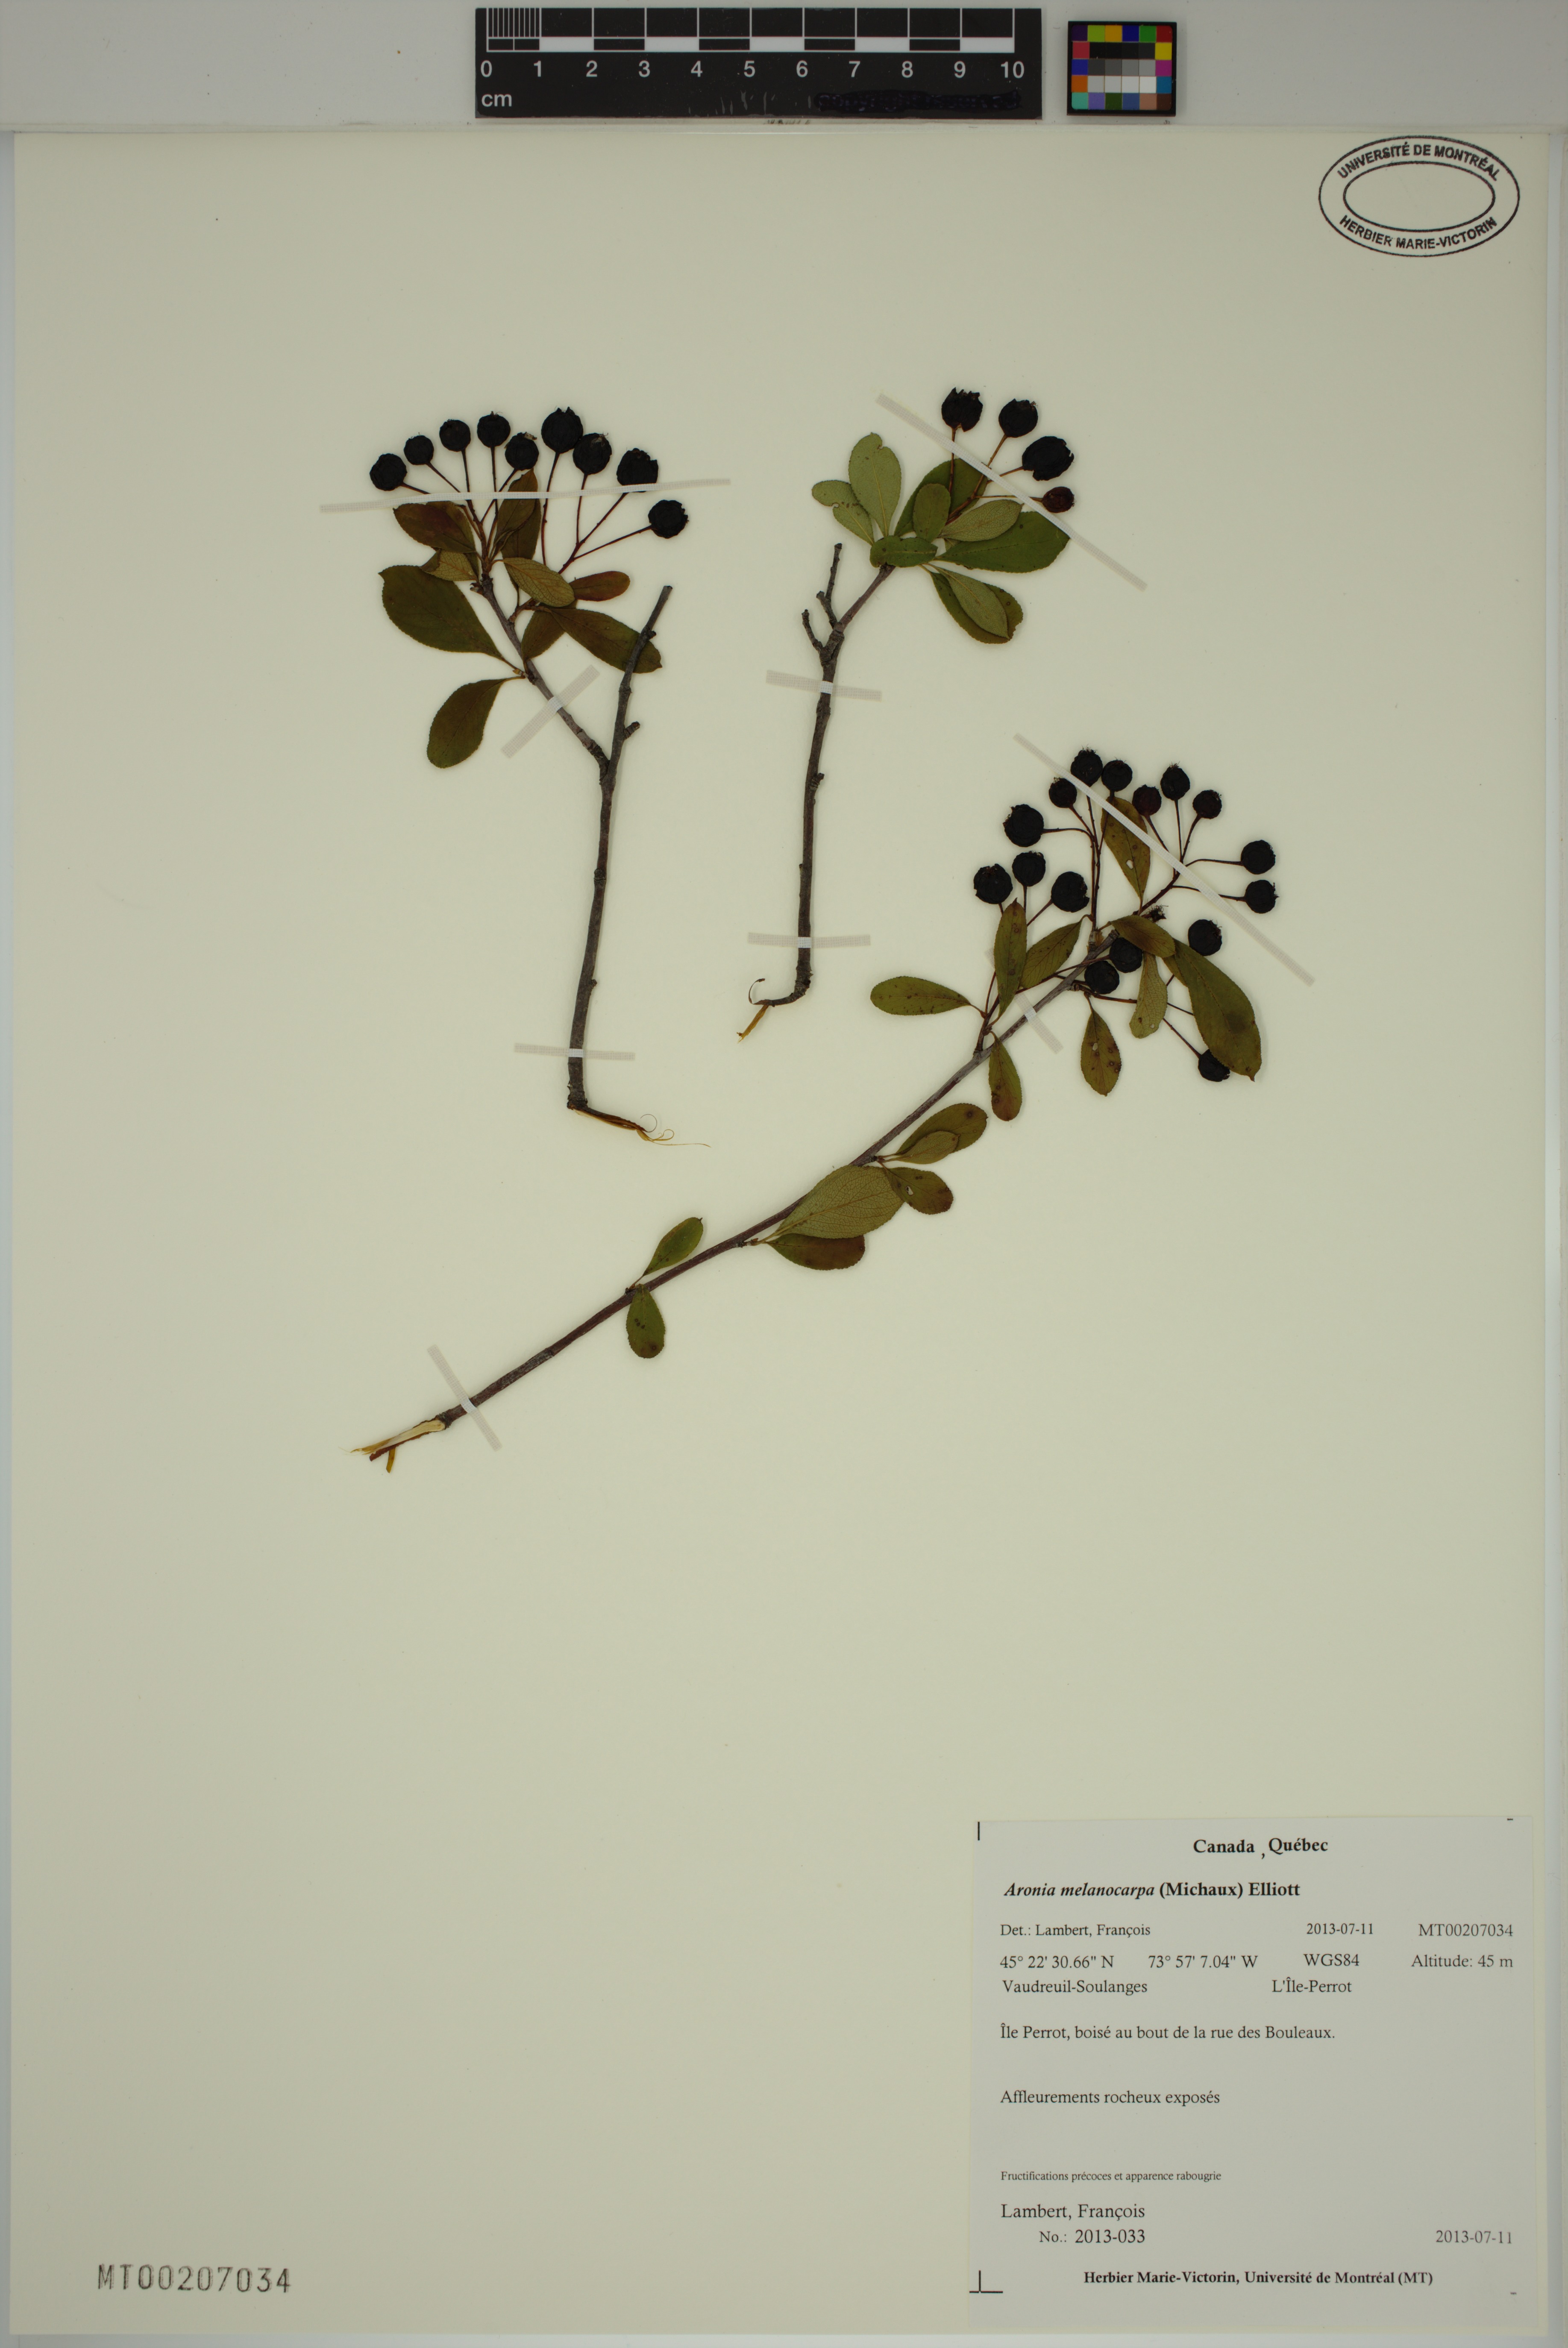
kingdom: Plantae
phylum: Tracheophyta
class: Magnoliopsida
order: Rosales
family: Rosaceae
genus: Aronia
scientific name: Aronia melanocarpa
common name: Black chokeberry
